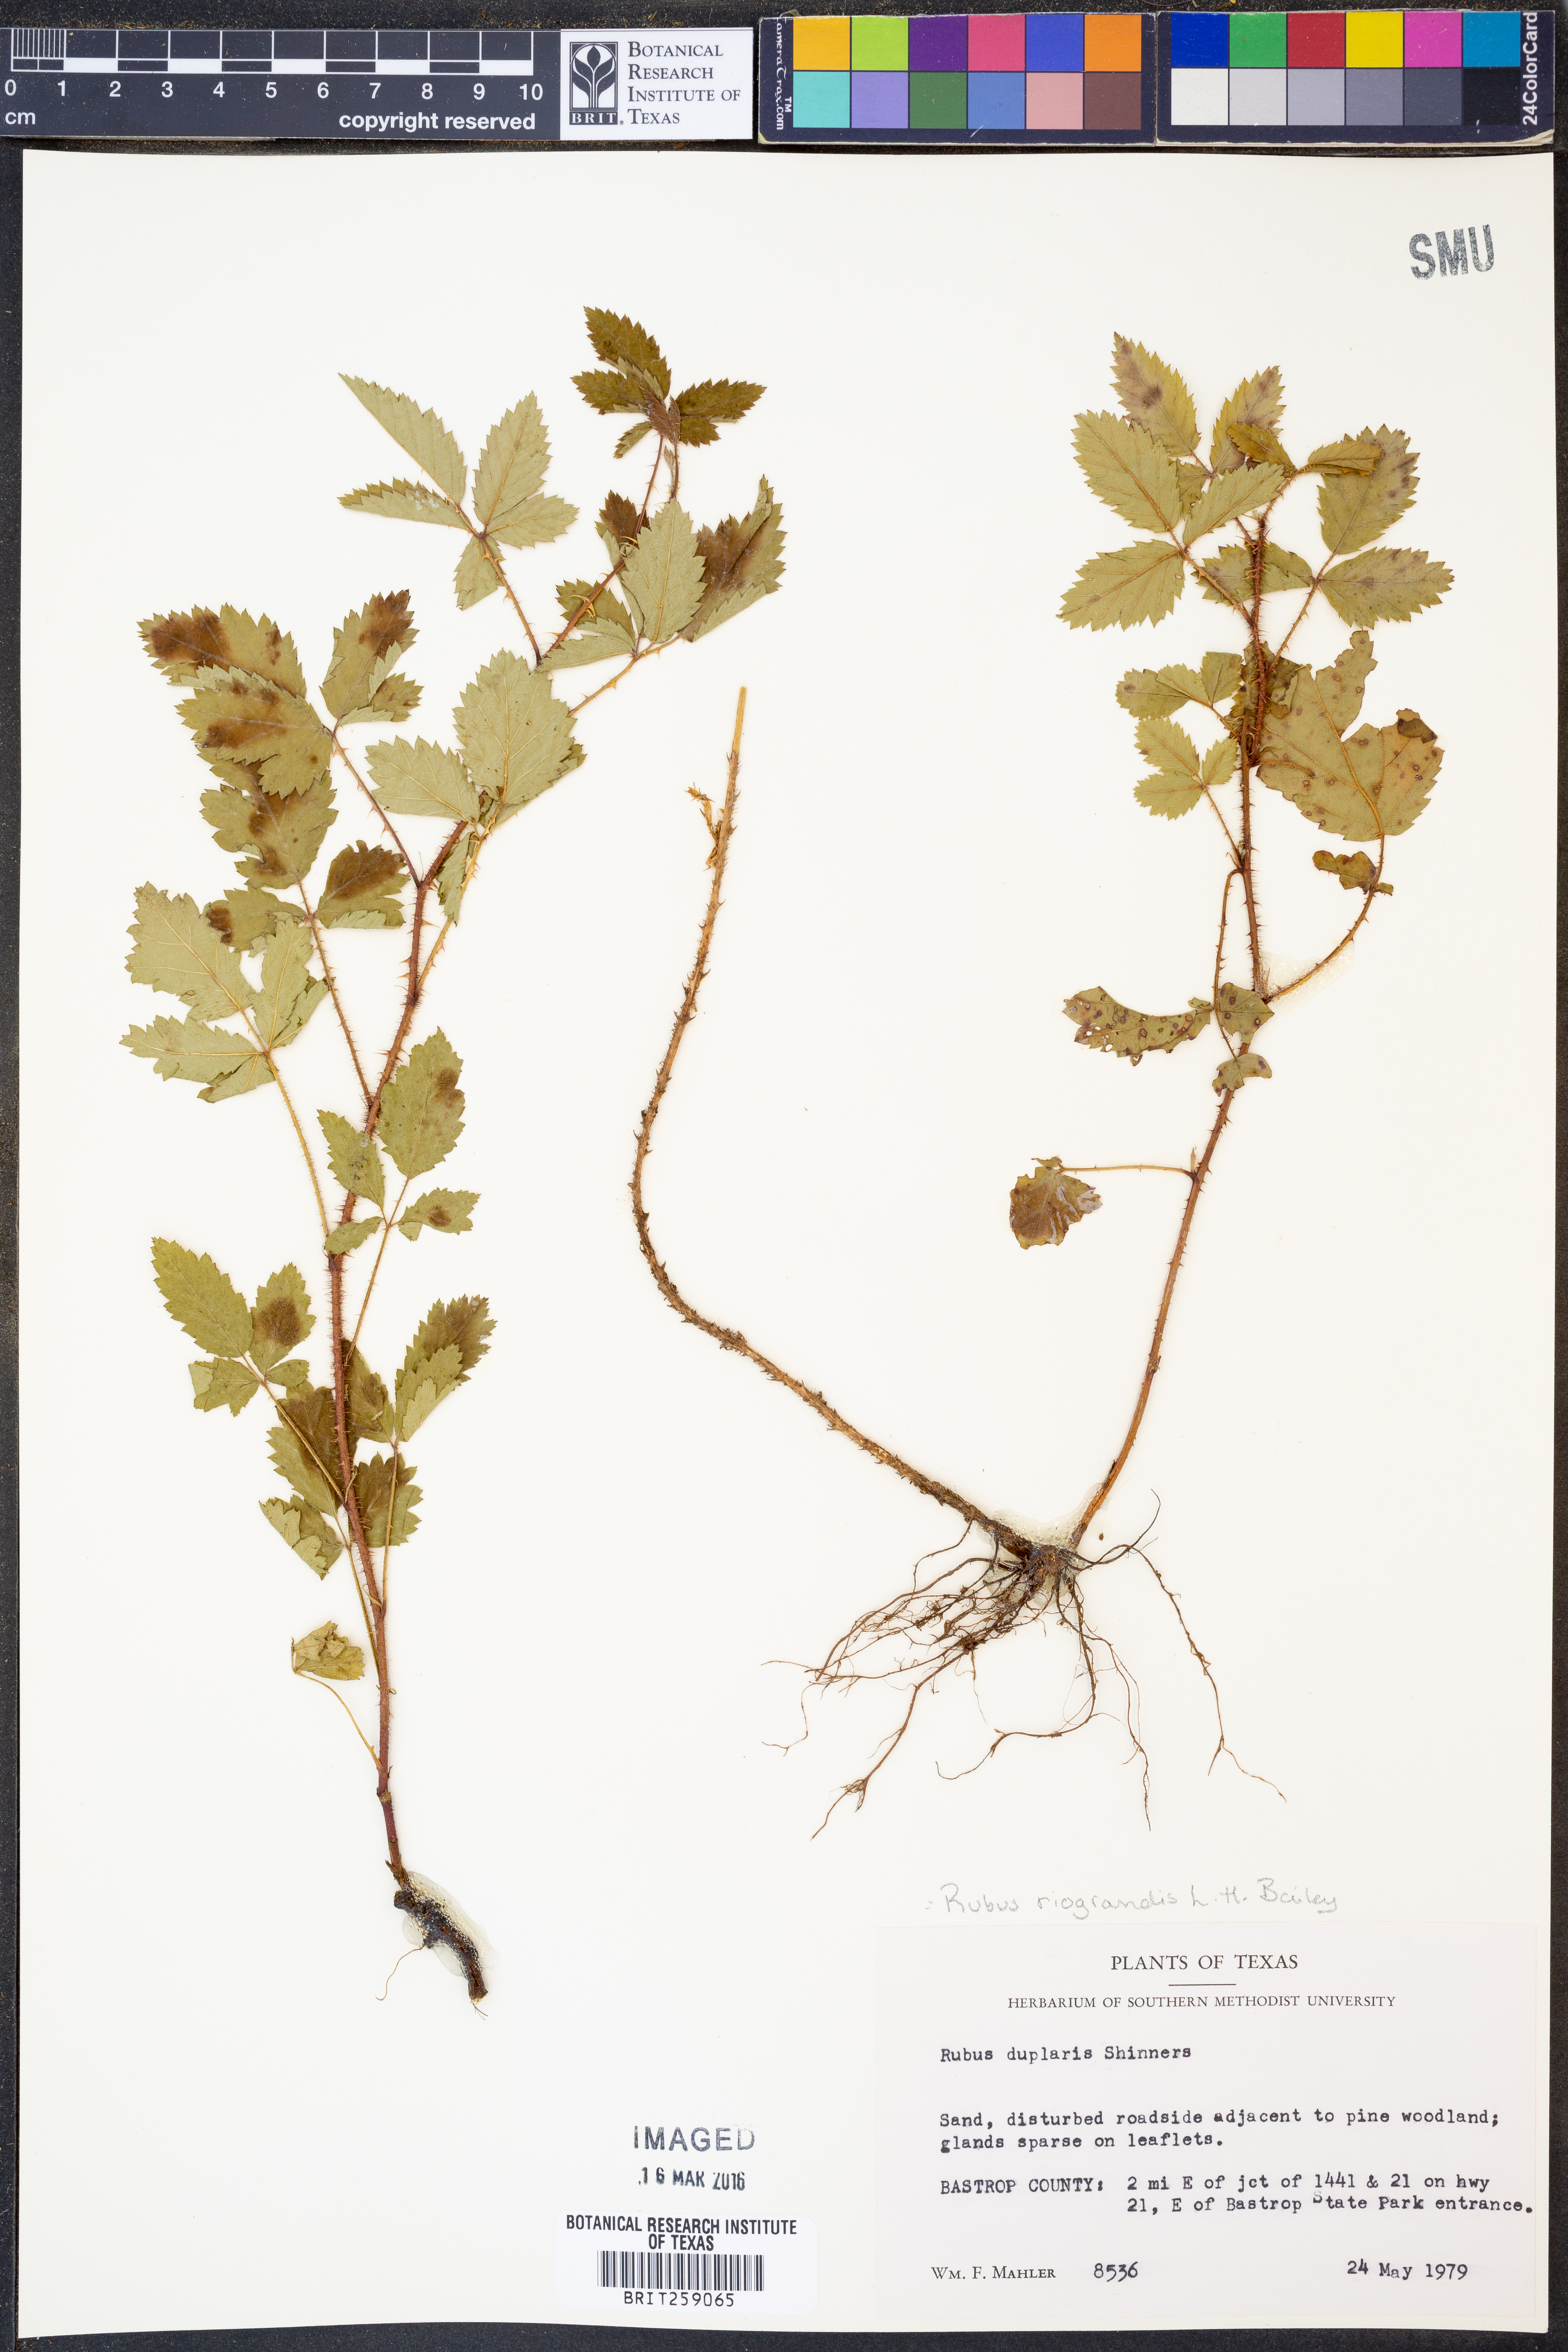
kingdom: Plantae
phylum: Tracheophyta
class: Magnoliopsida
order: Rosales
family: Rosaceae
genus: Rubus
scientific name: Rubus riograndis
